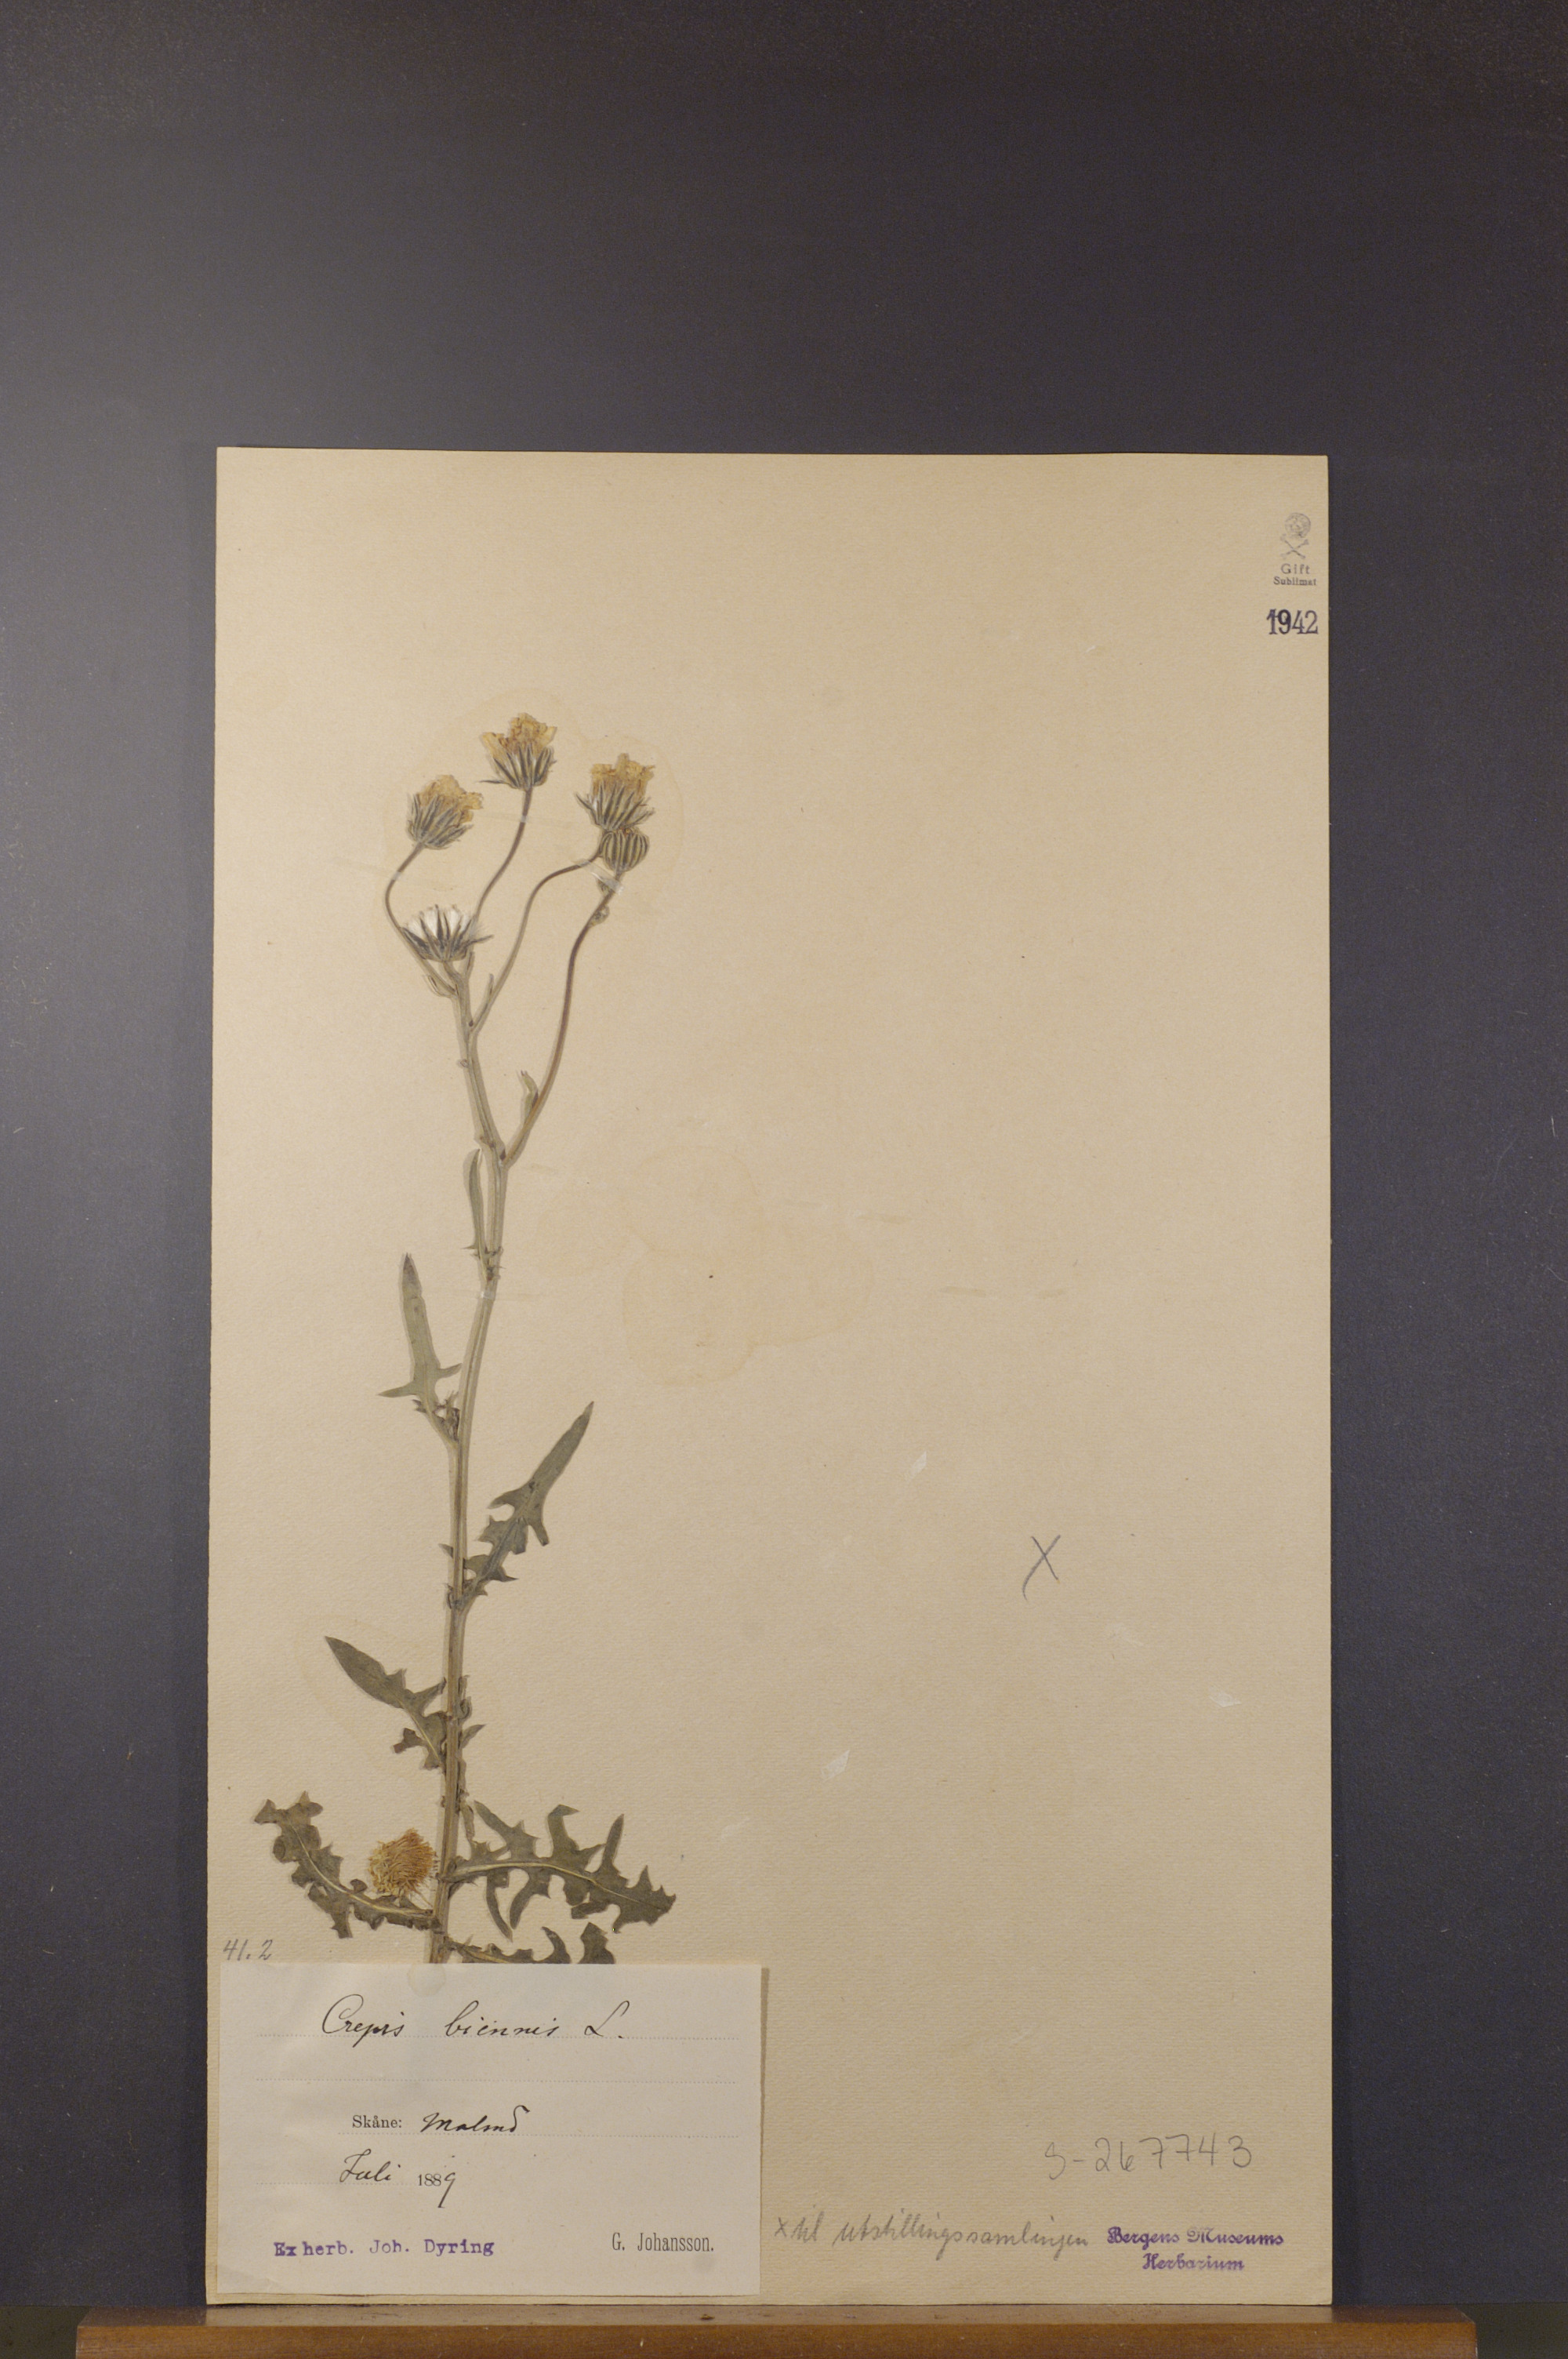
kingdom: Plantae
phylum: Tracheophyta
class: Magnoliopsida
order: Asterales
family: Asteraceae
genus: Crepis
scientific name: Crepis biennis
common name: Rough hawk's-beard
